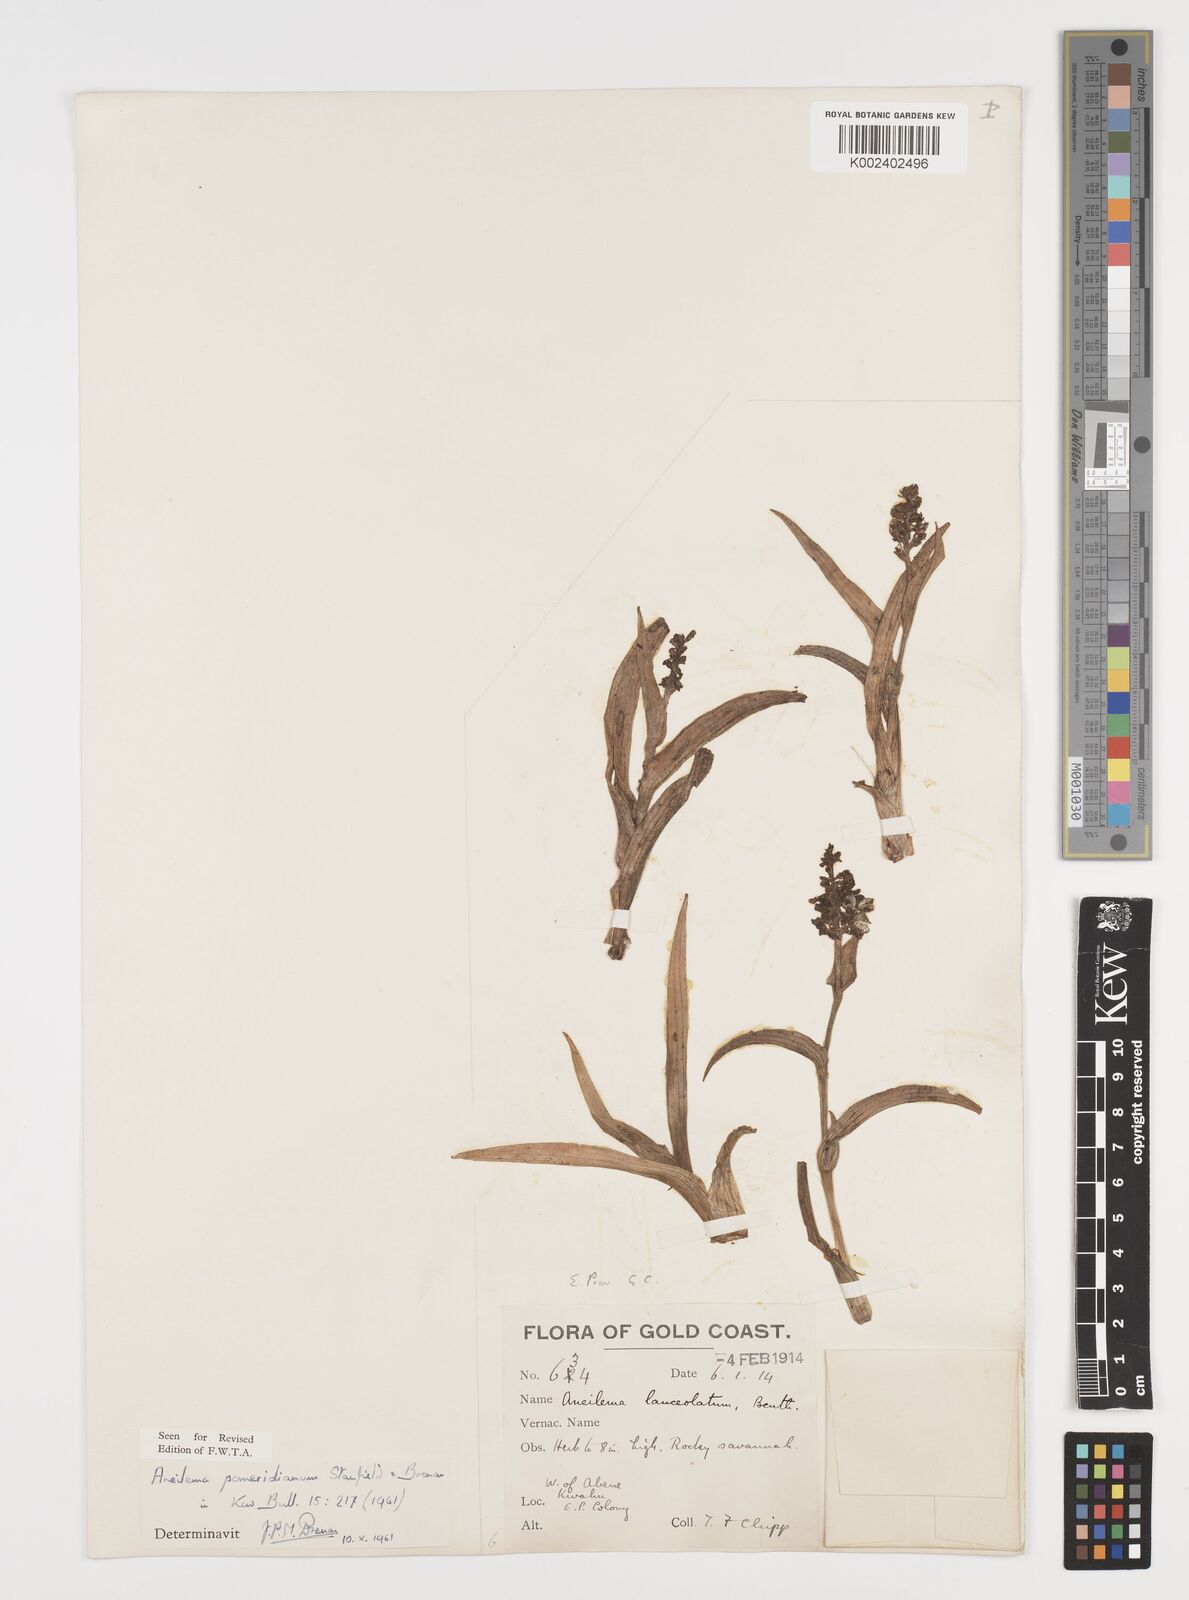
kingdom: Plantae
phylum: Tracheophyta
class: Liliopsida
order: Commelinales
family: Commelinaceae
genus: Aneilema
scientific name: Aneilema pomeridianum
